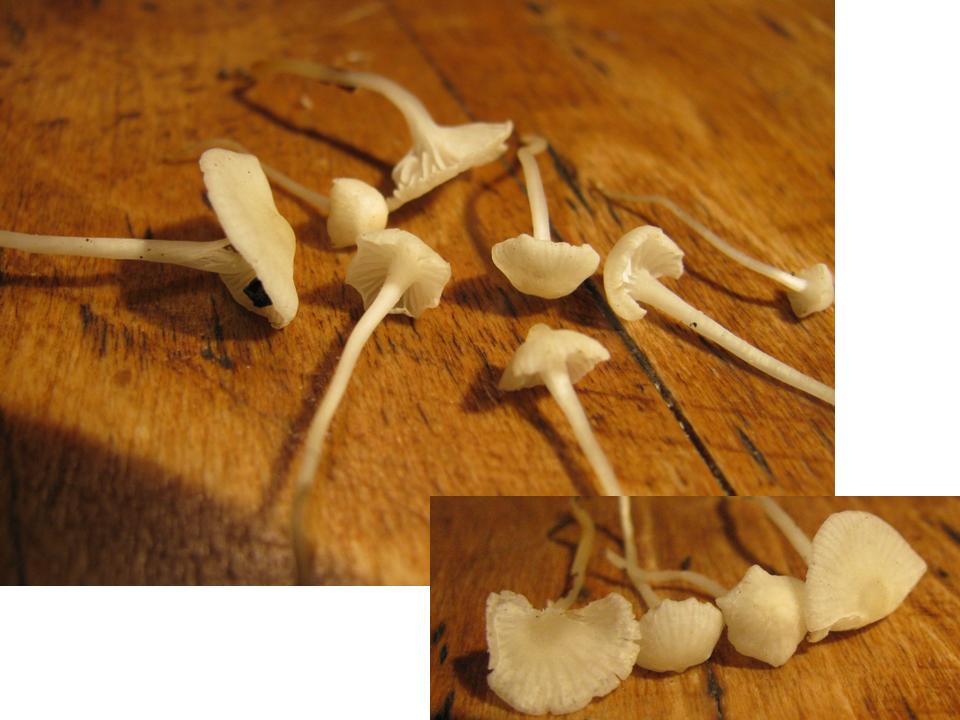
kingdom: Fungi
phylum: Basidiomycota
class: Agaricomycetes
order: Agaricales
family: Mycenaceae
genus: Atheniella
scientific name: Atheniella flavoalba
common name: gulhvid huesvamp
